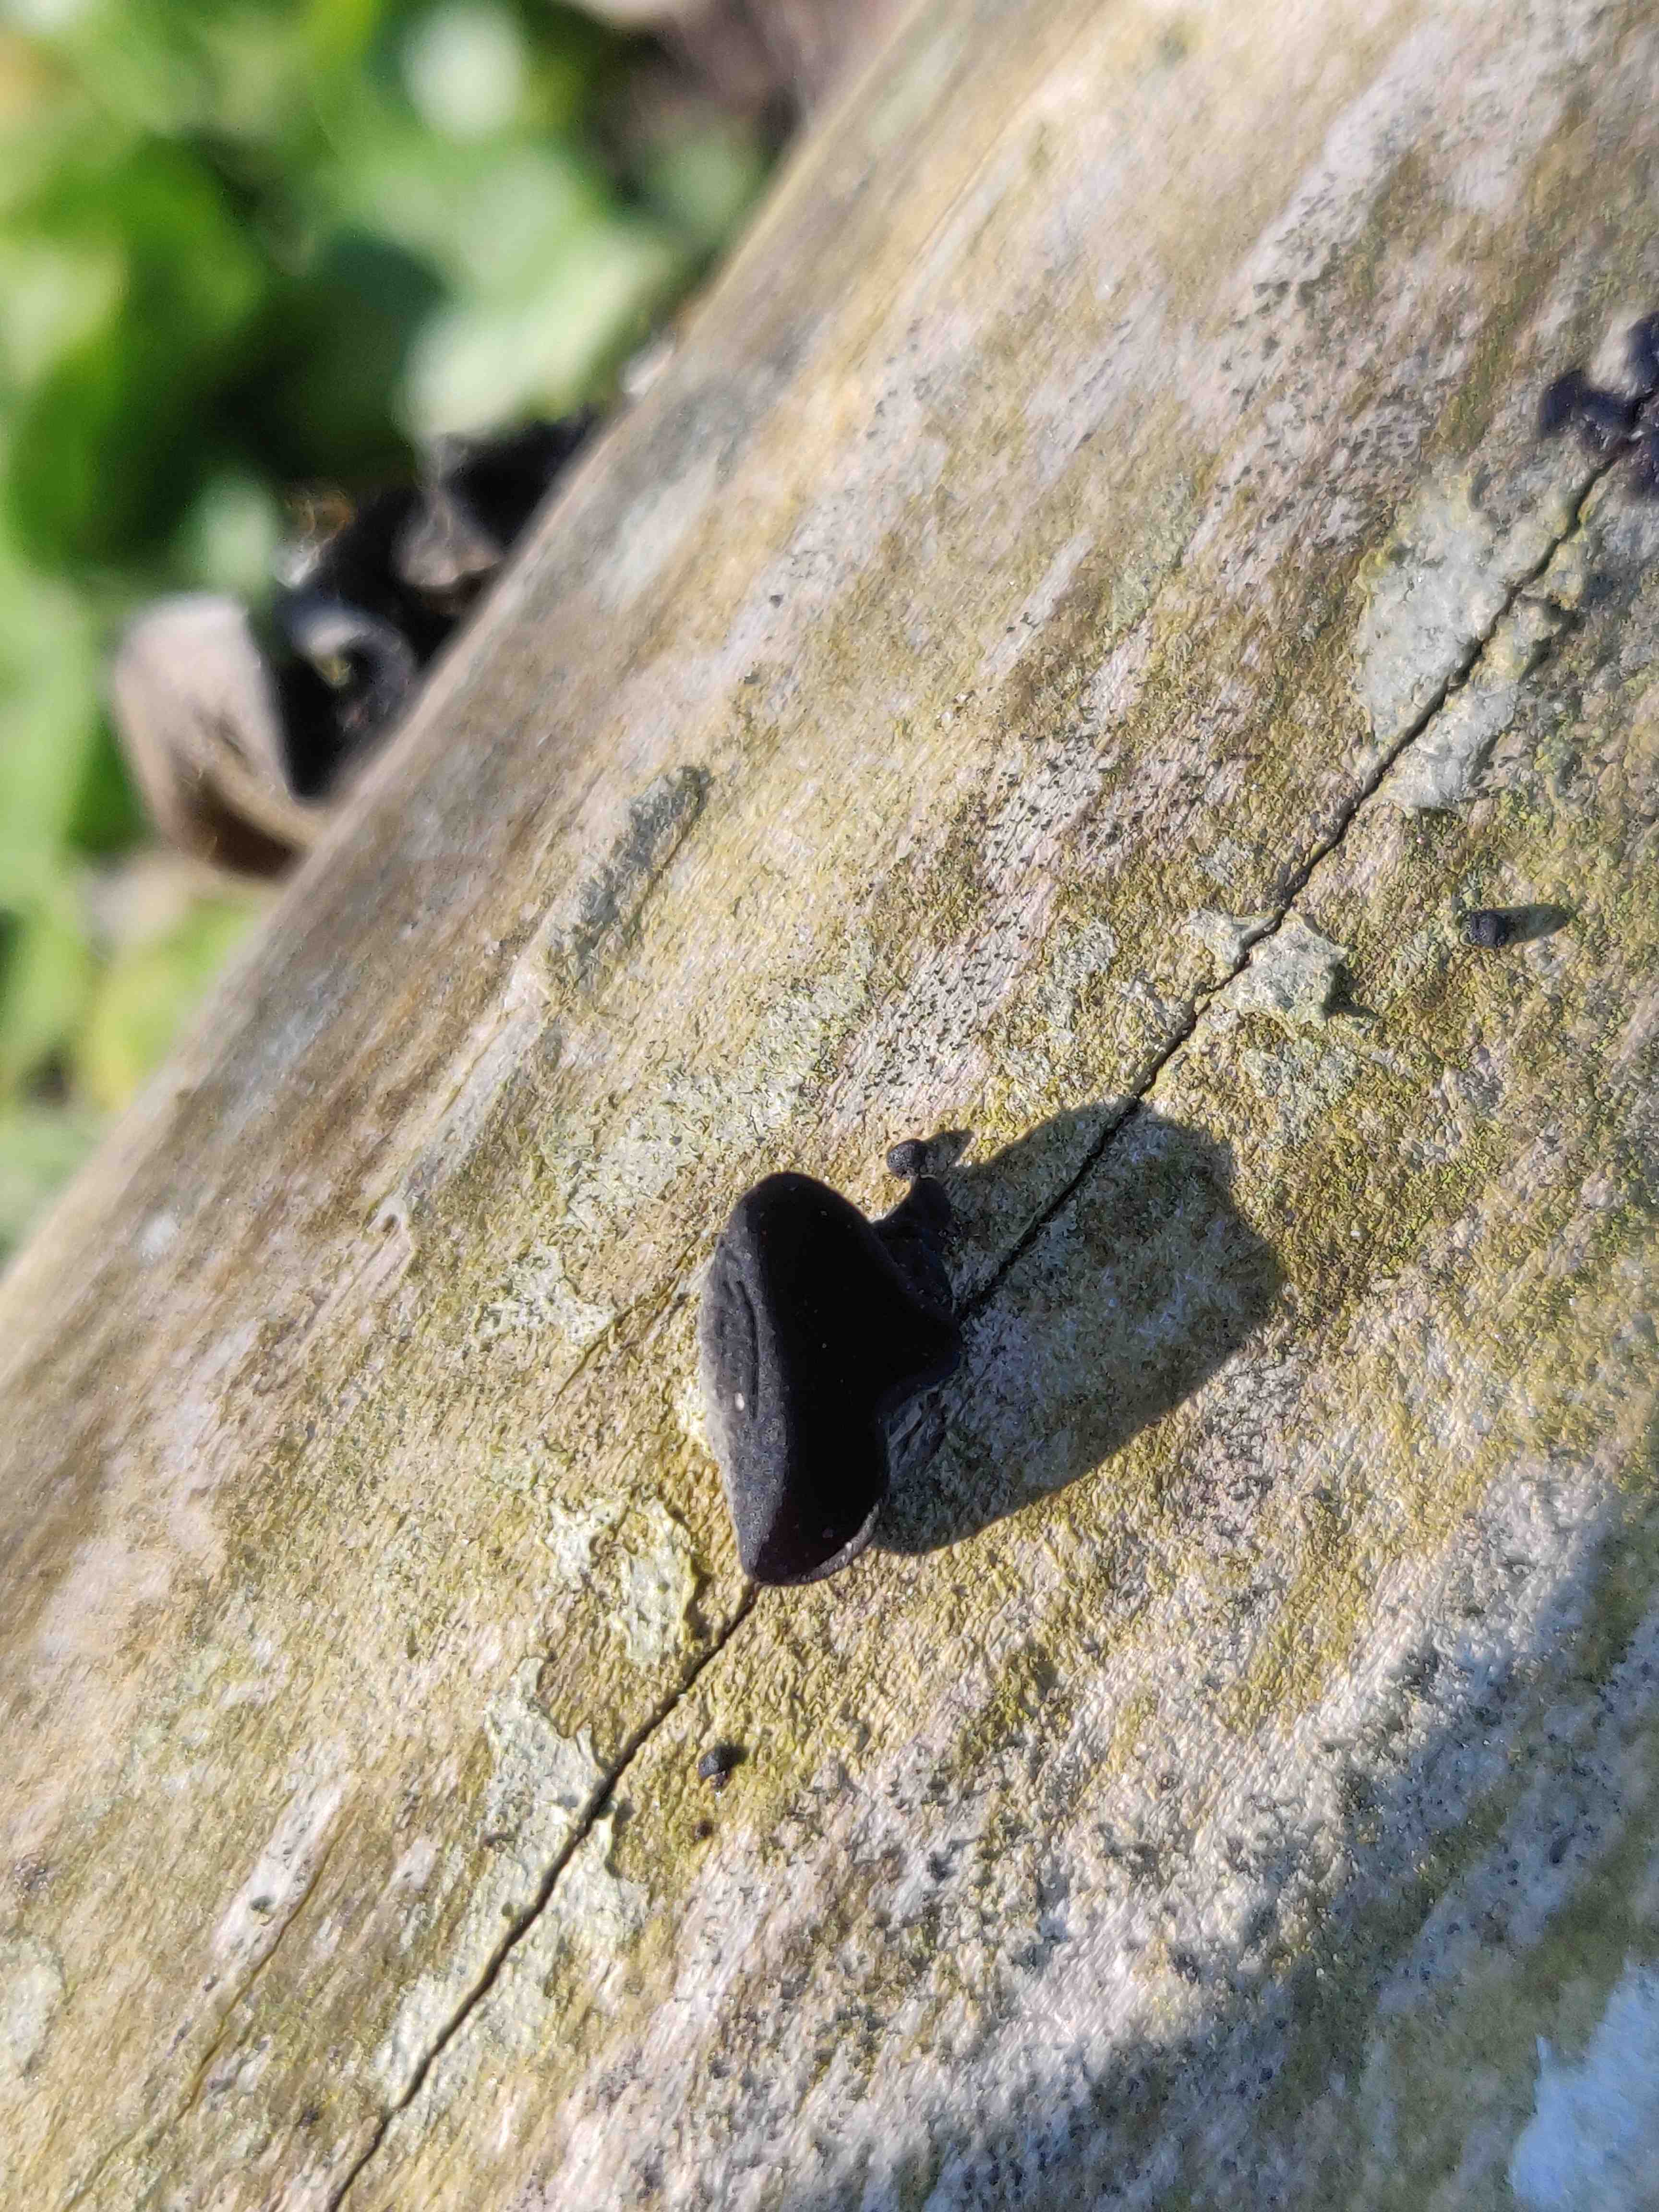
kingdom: Fungi
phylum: Basidiomycota
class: Agaricomycetes
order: Auriculariales
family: Auriculariaceae
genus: Exidia
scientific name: Exidia glandulosa
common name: ege-bævretop
